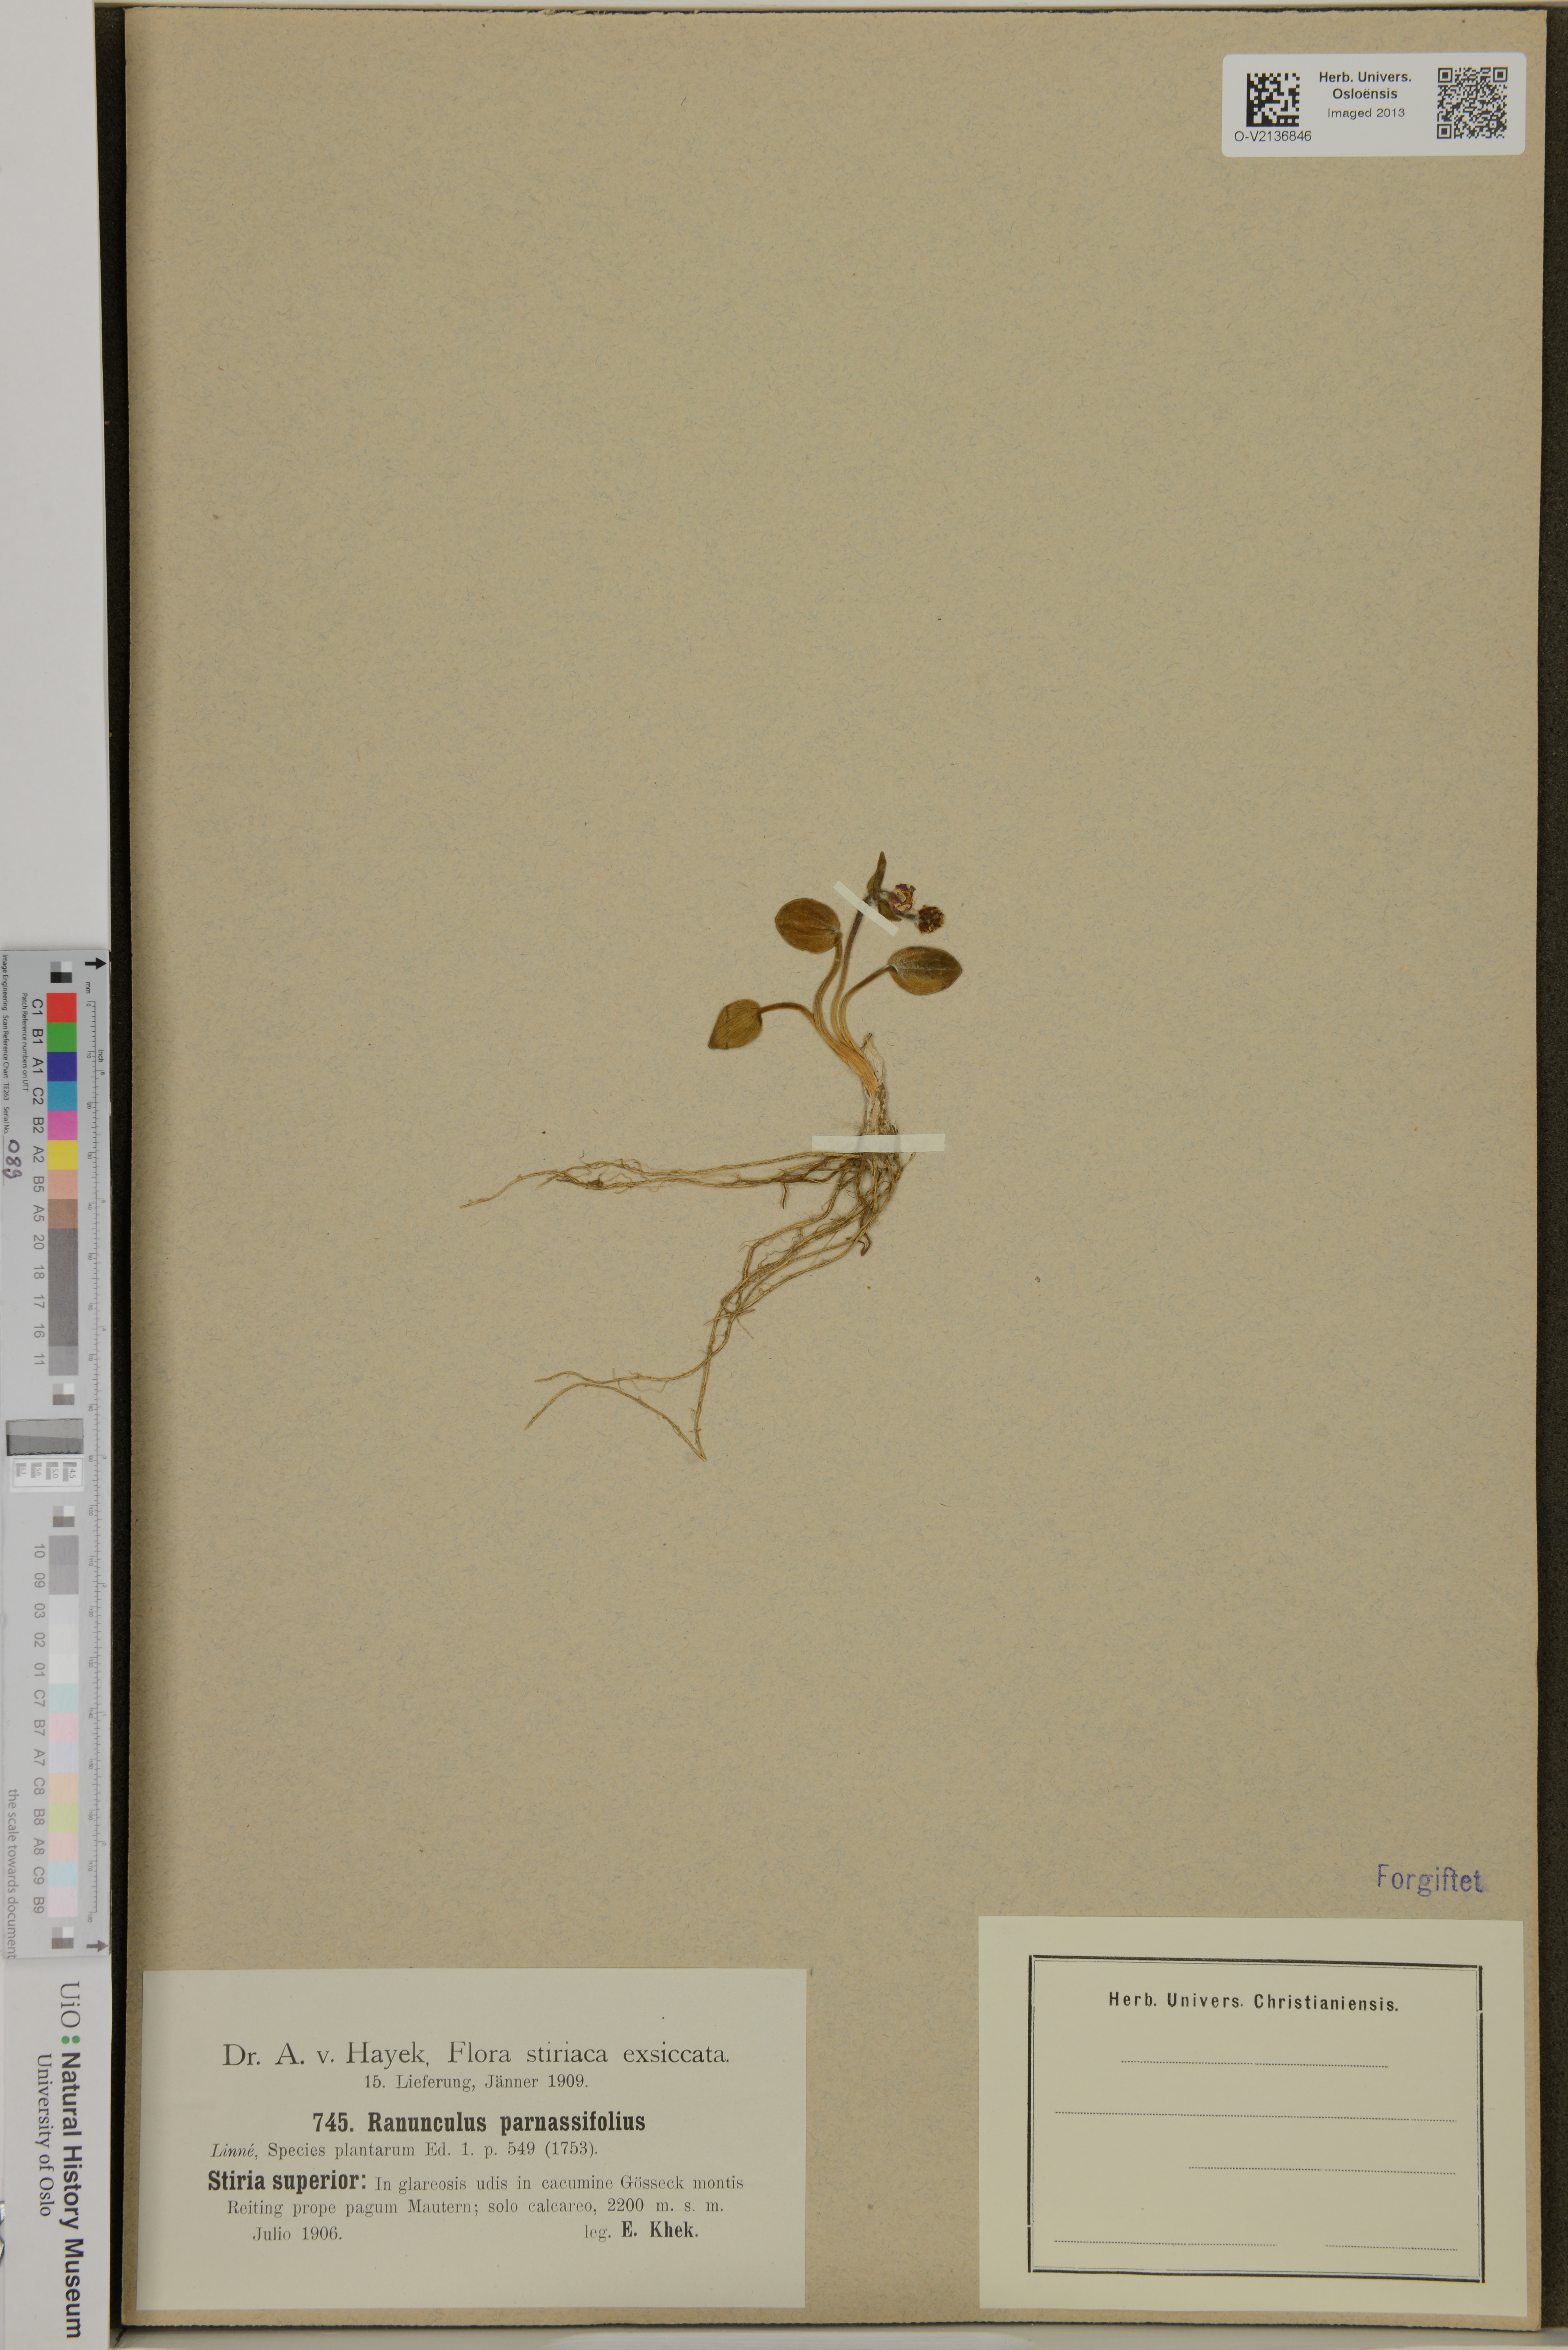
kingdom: Plantae
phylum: Tracheophyta
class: Magnoliopsida
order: Ranunculales
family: Ranunculaceae
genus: Ranunculus
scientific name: Ranunculus parnassiifolius
